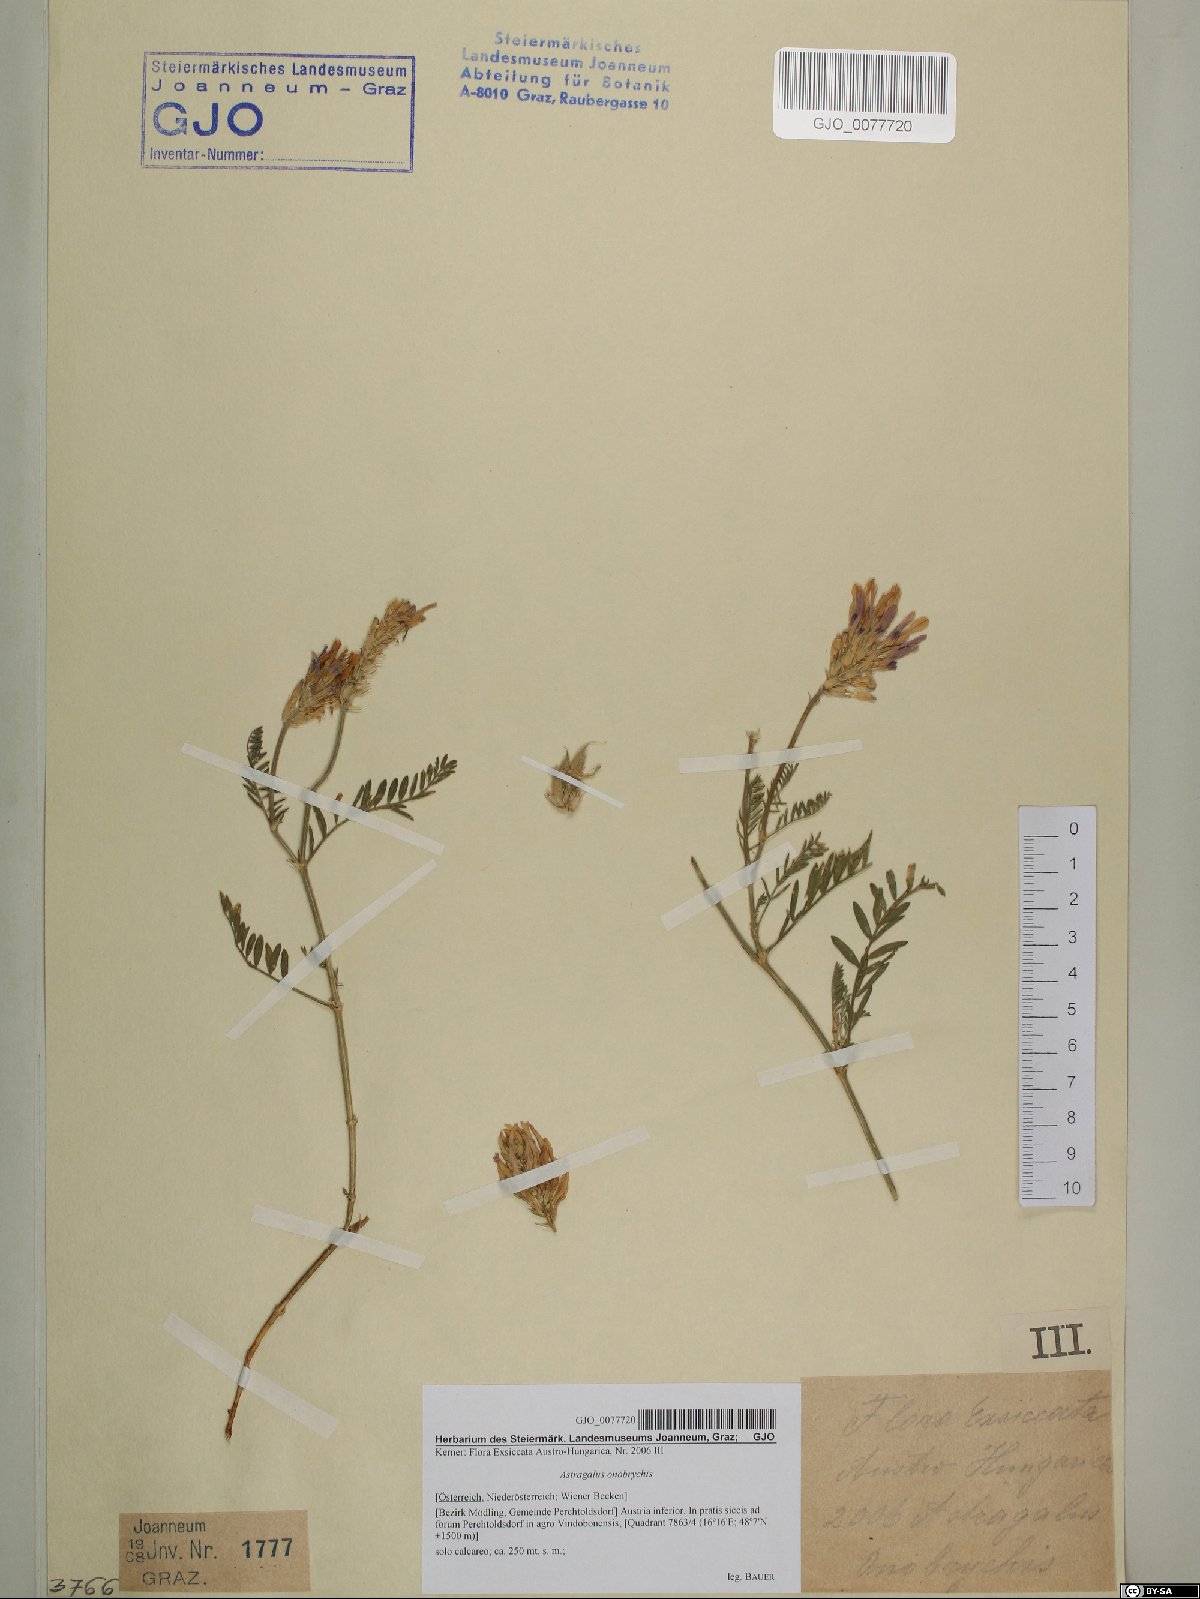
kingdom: Plantae
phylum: Tracheophyta
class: Magnoliopsida
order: Fabales
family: Fabaceae
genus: Astragalus
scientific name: Astragalus onobrychis
